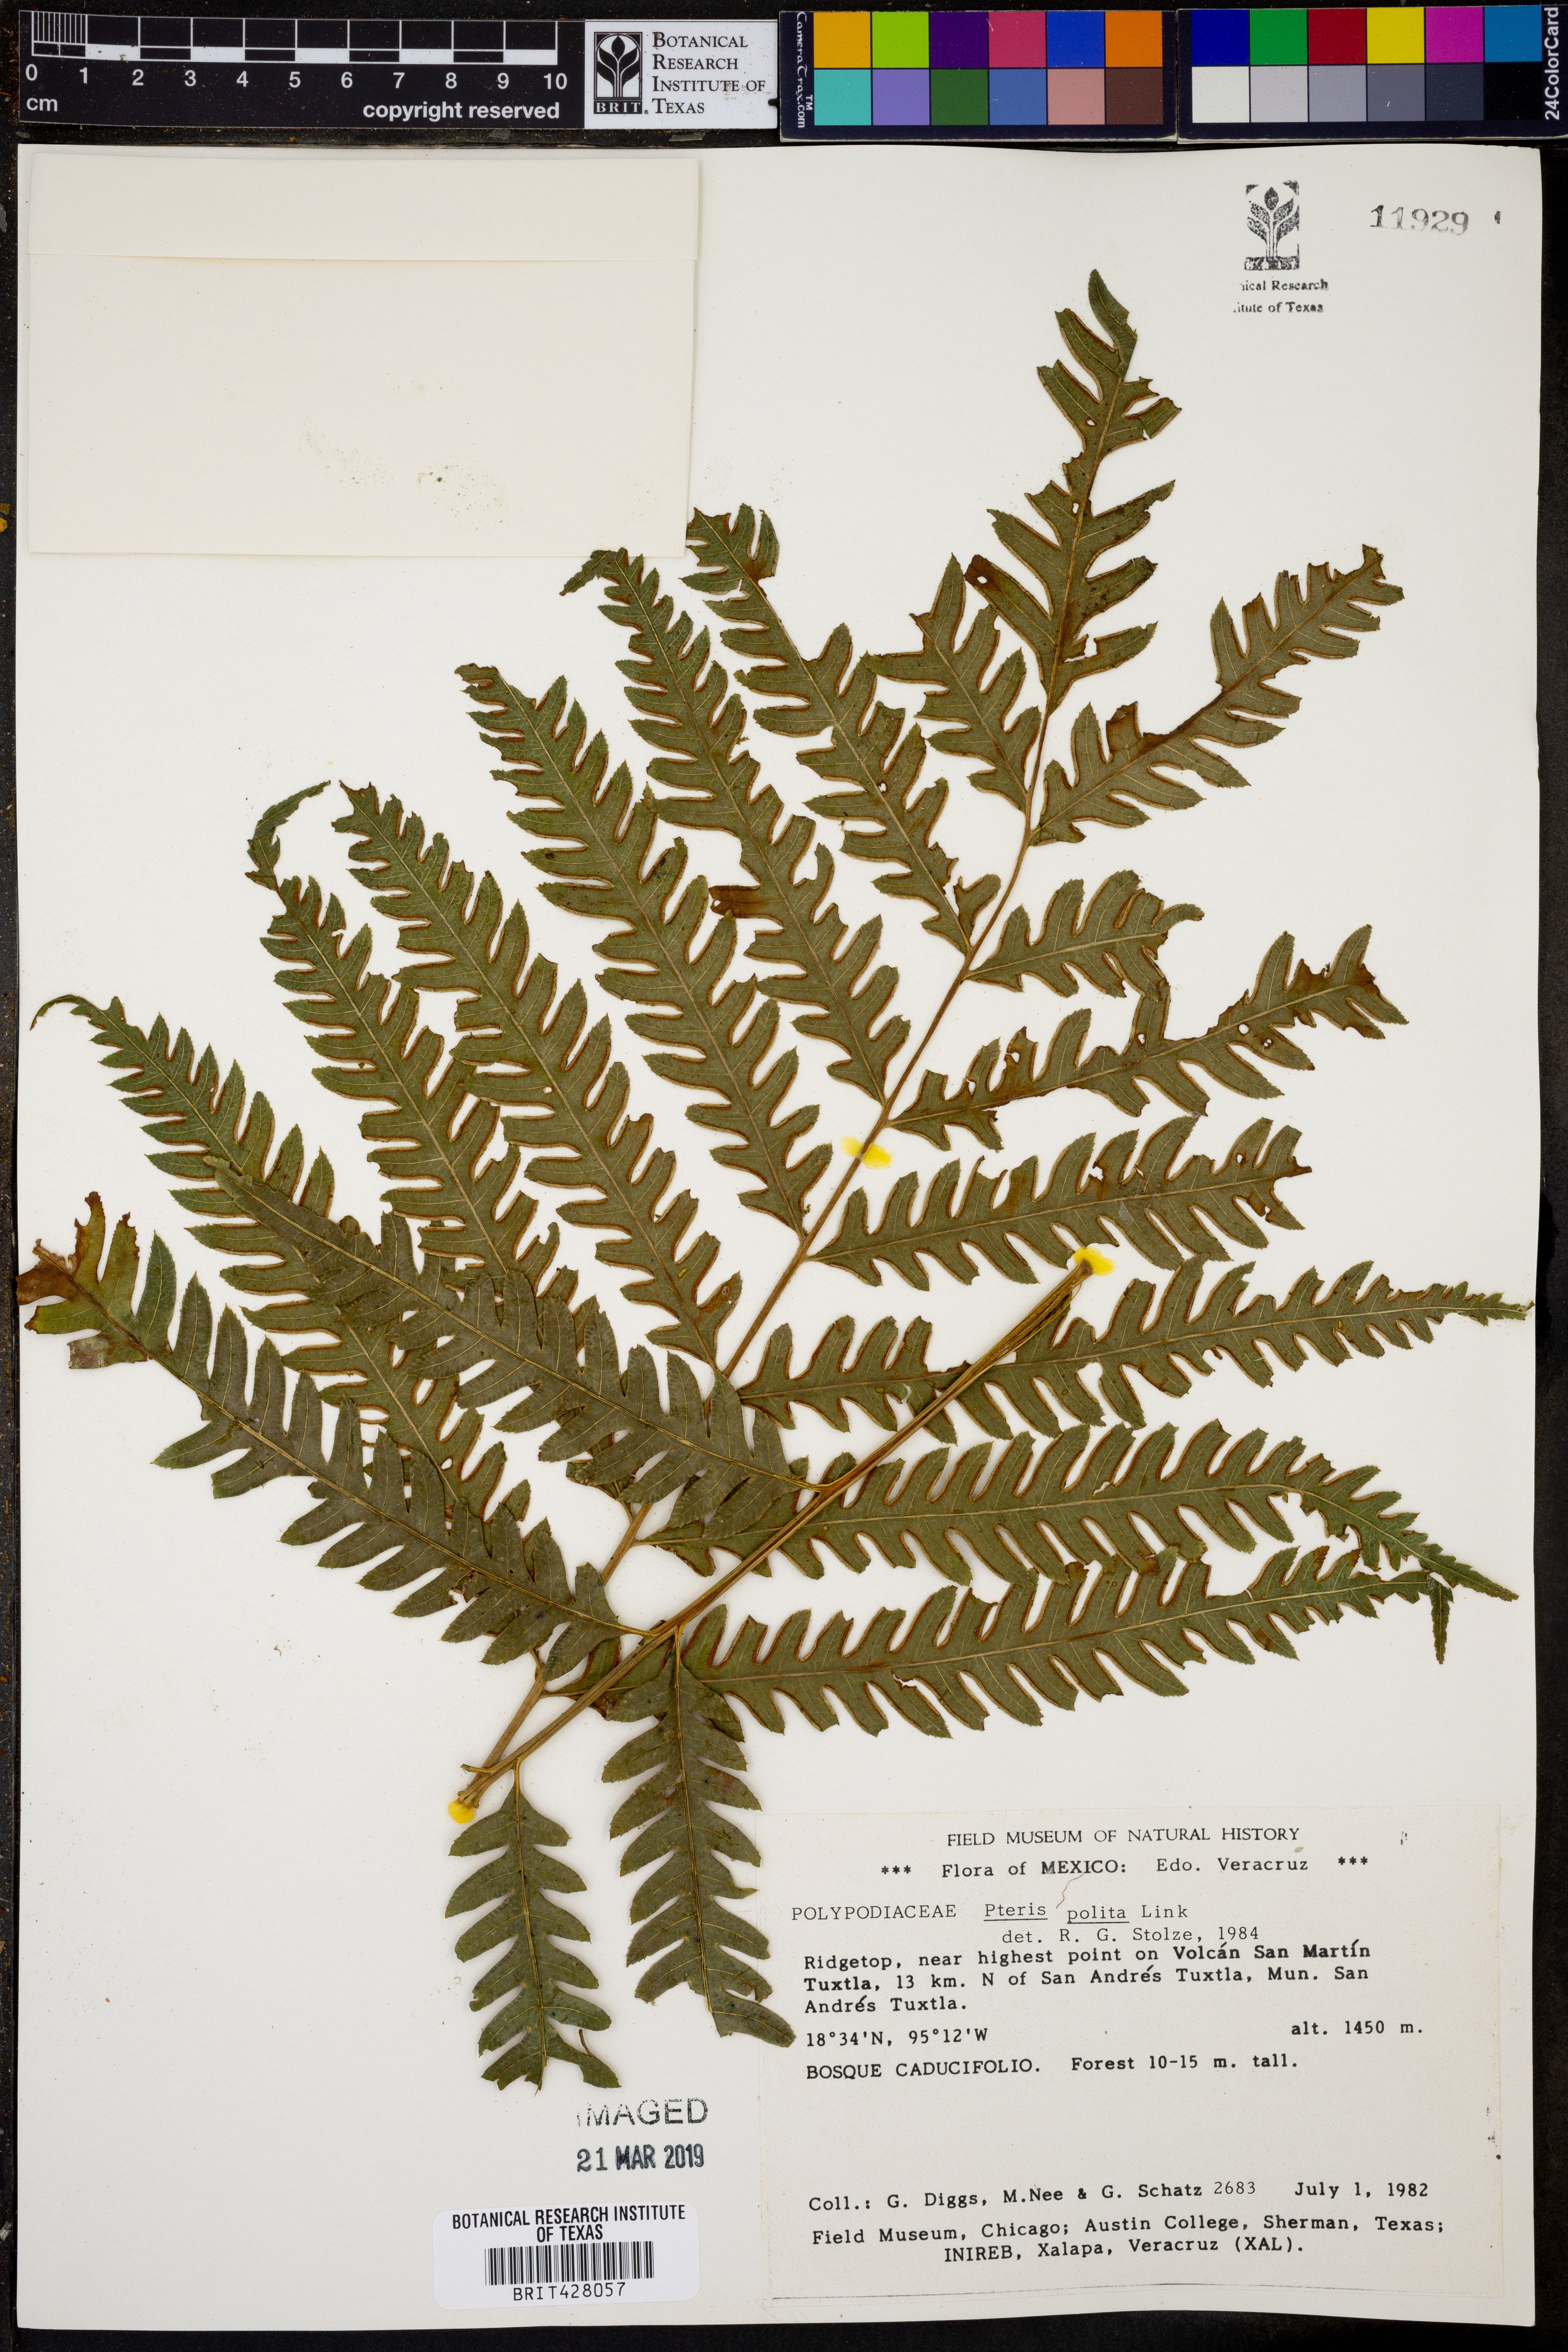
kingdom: Plantae
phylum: Tracheophyta
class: Polypodiopsida
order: Polypodiales
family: Pteridaceae
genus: Pteris
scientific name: Pteris deflexa
